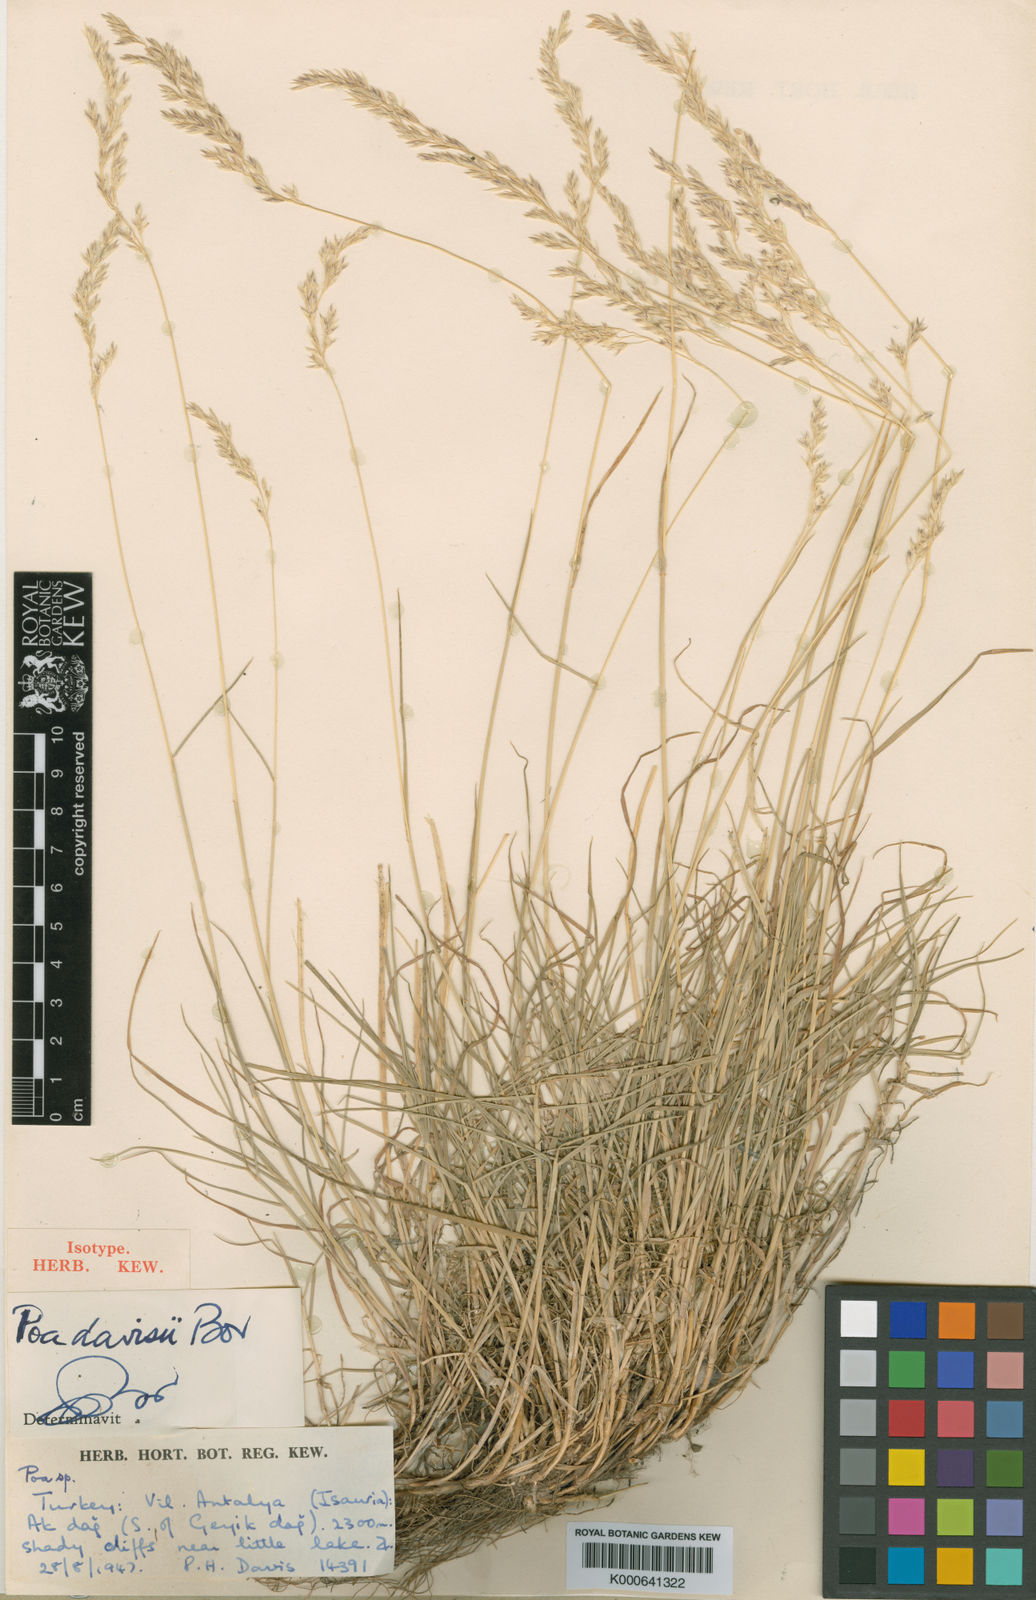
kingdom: Plantae
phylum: Tracheophyta
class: Liliopsida
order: Poales
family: Poaceae
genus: Poa
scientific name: Poa davisii
